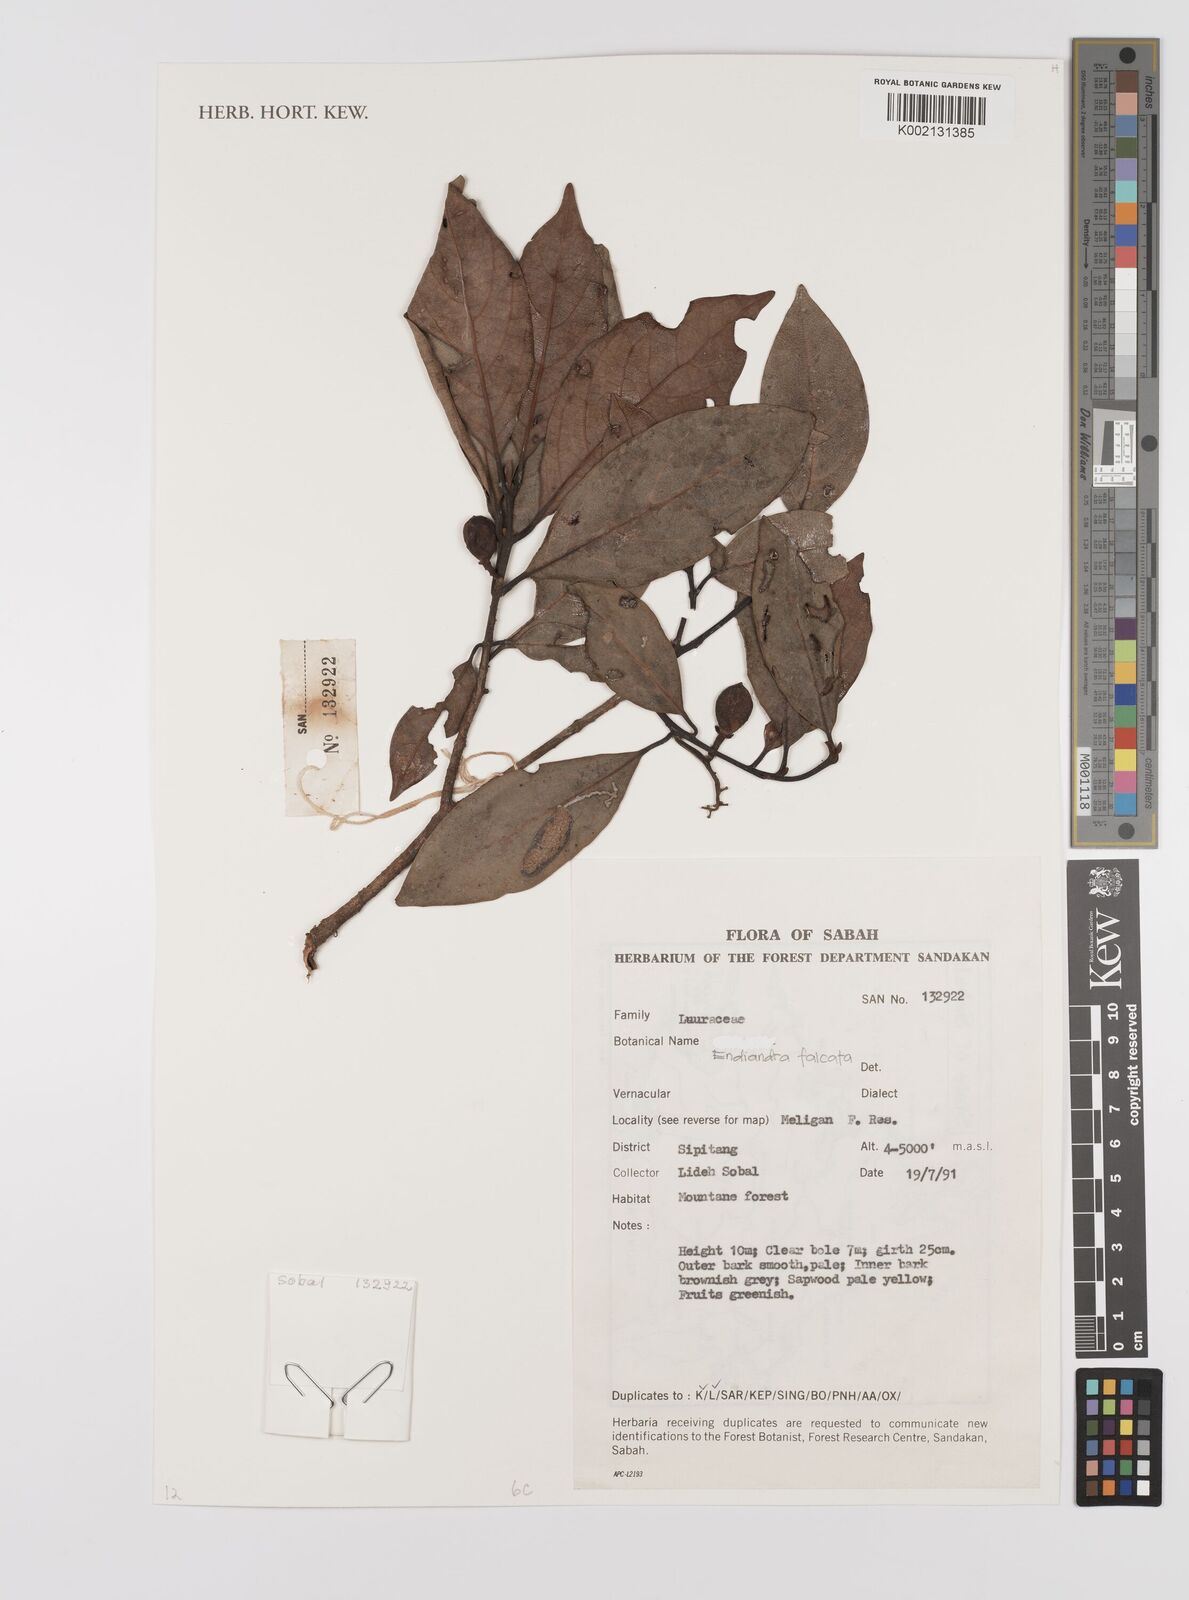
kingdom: Plantae
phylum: Tracheophyta
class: Magnoliopsida
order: Laurales
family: Lauraceae
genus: Endiandra
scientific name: Endiandra
